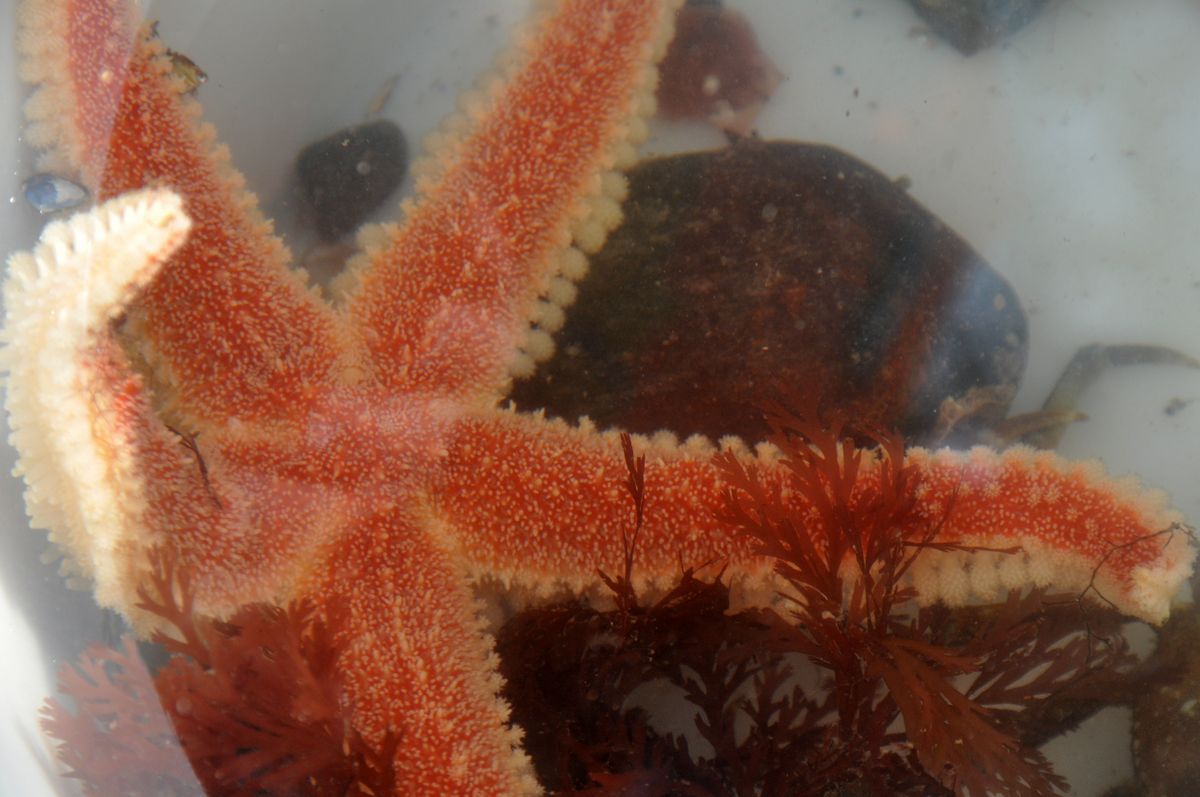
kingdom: Animalia
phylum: Echinodermata
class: Asteroidea
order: Forcipulatida
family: Asteriidae
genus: Urasterias
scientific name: Urasterias lincki
